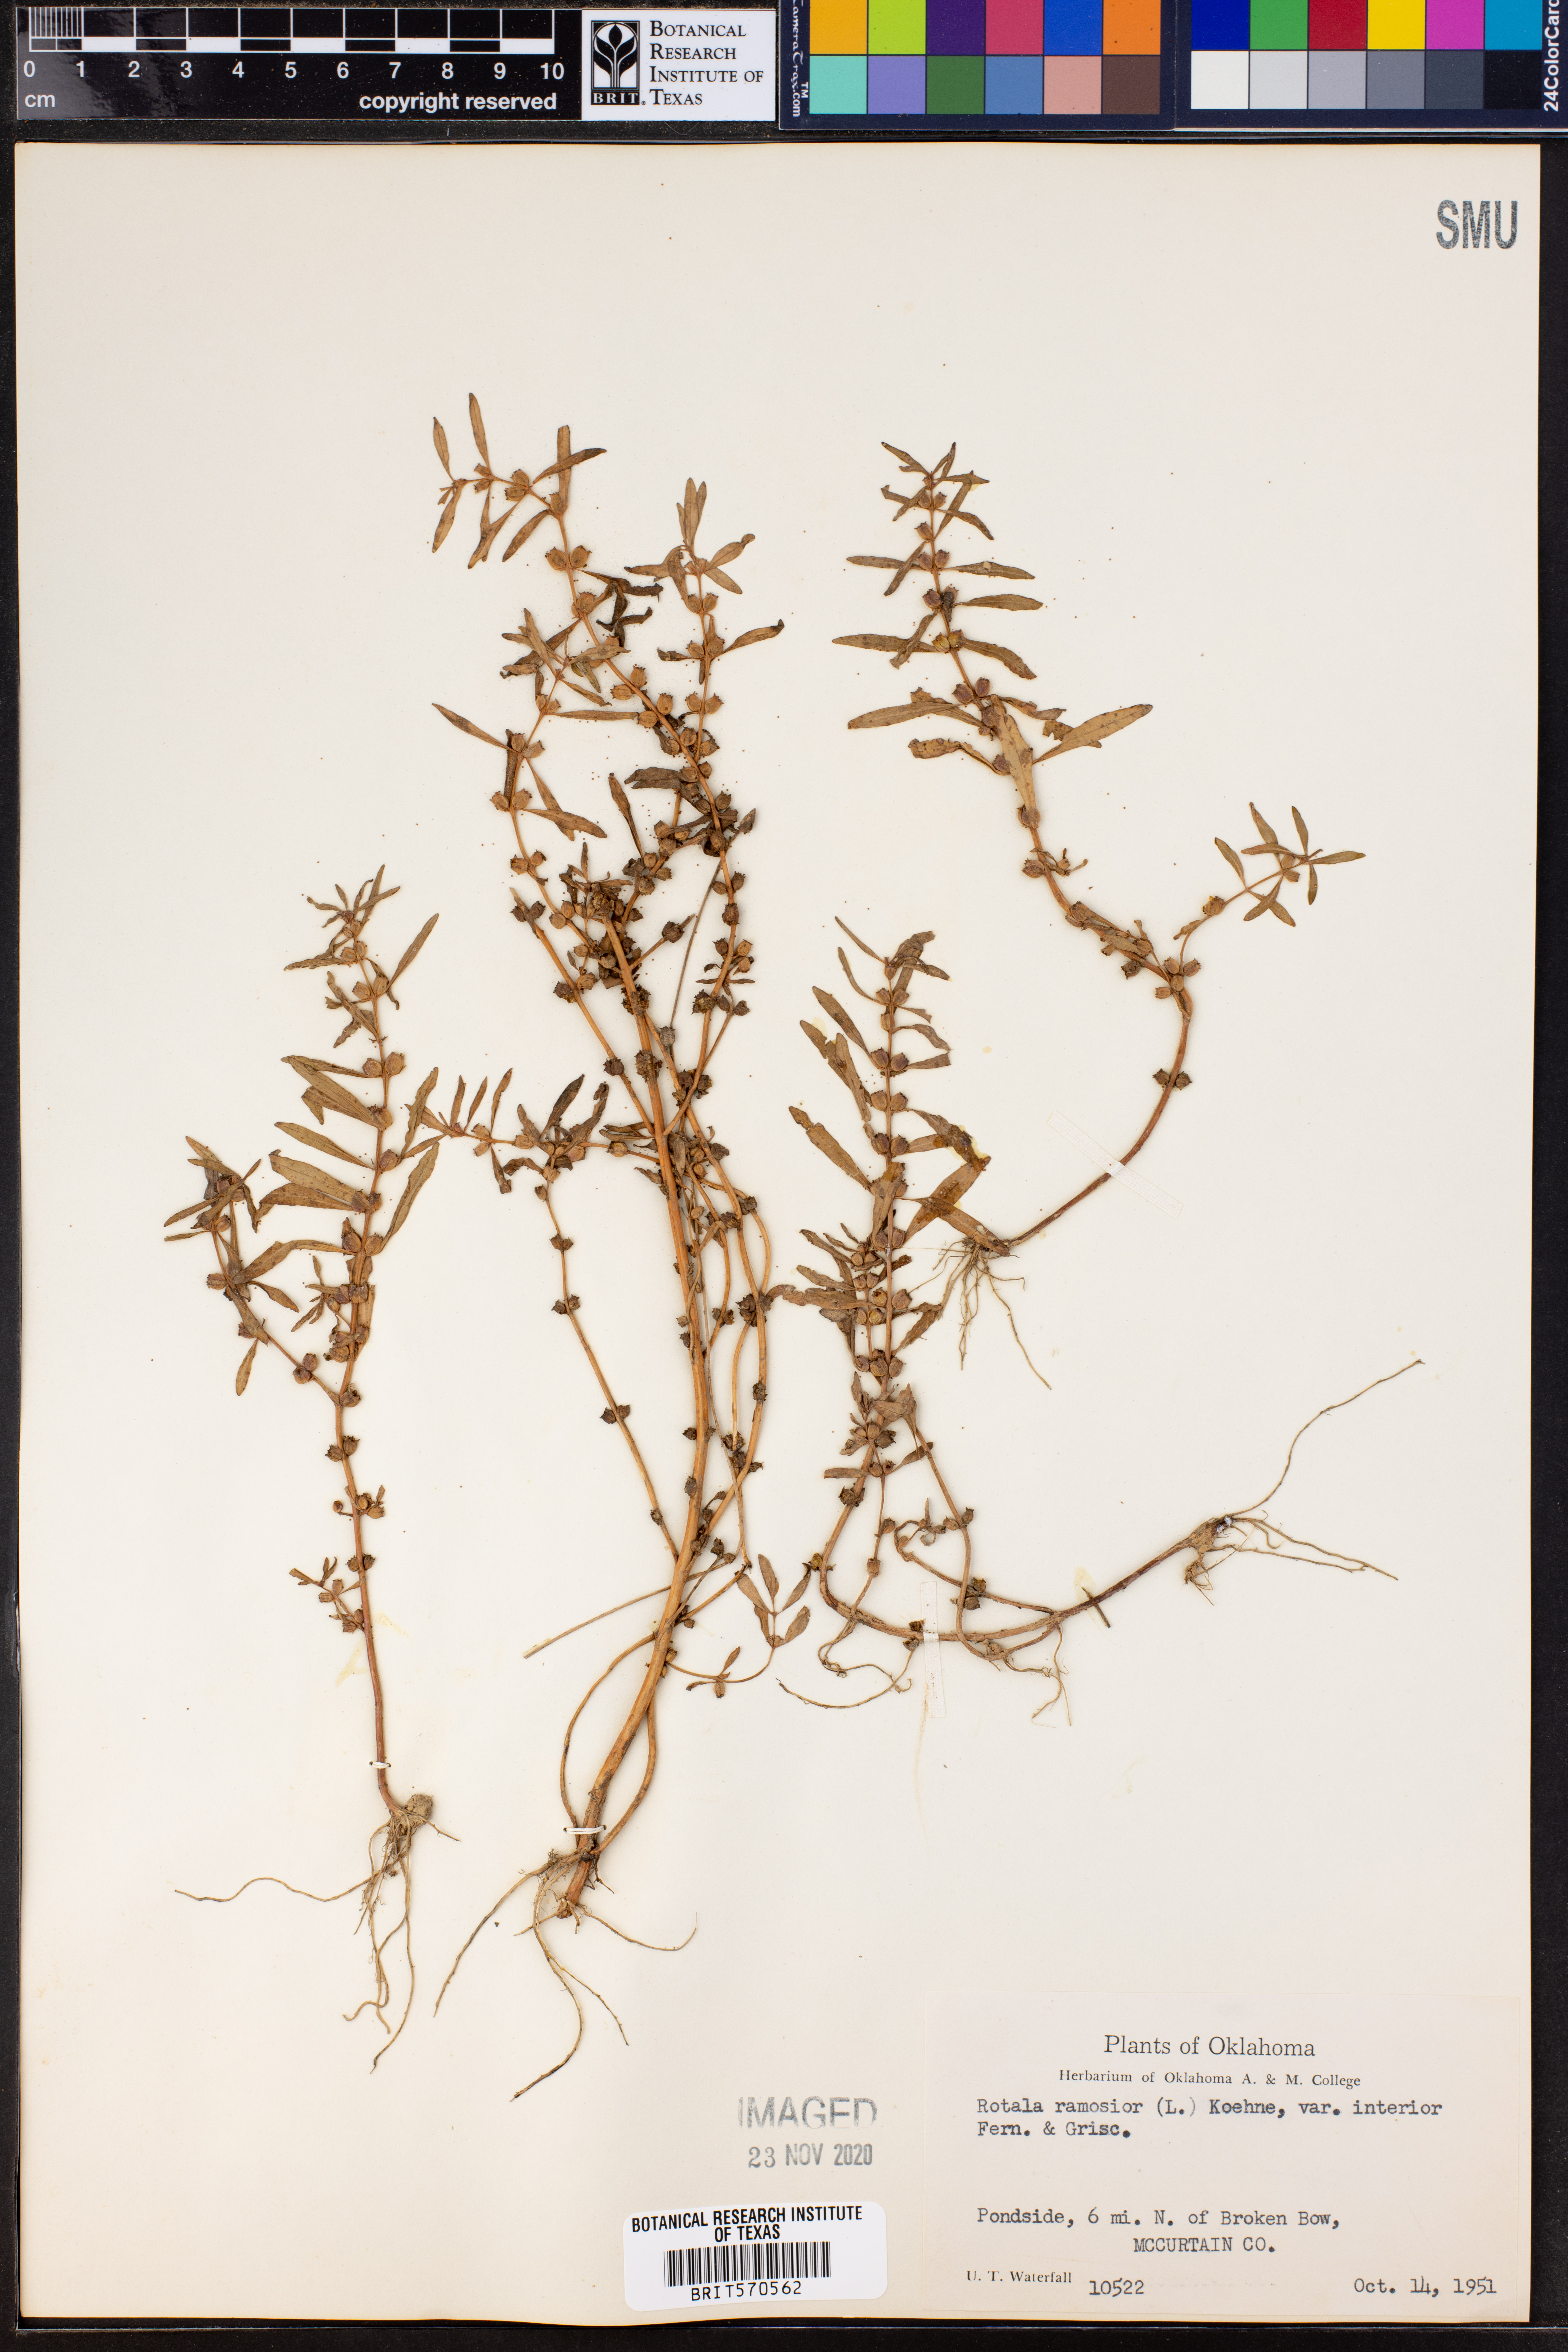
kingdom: Plantae
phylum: Tracheophyta
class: Magnoliopsida
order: Myrtales
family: Lythraceae
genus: Rotala
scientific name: Rotala ramosior
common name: Lowland rotala
